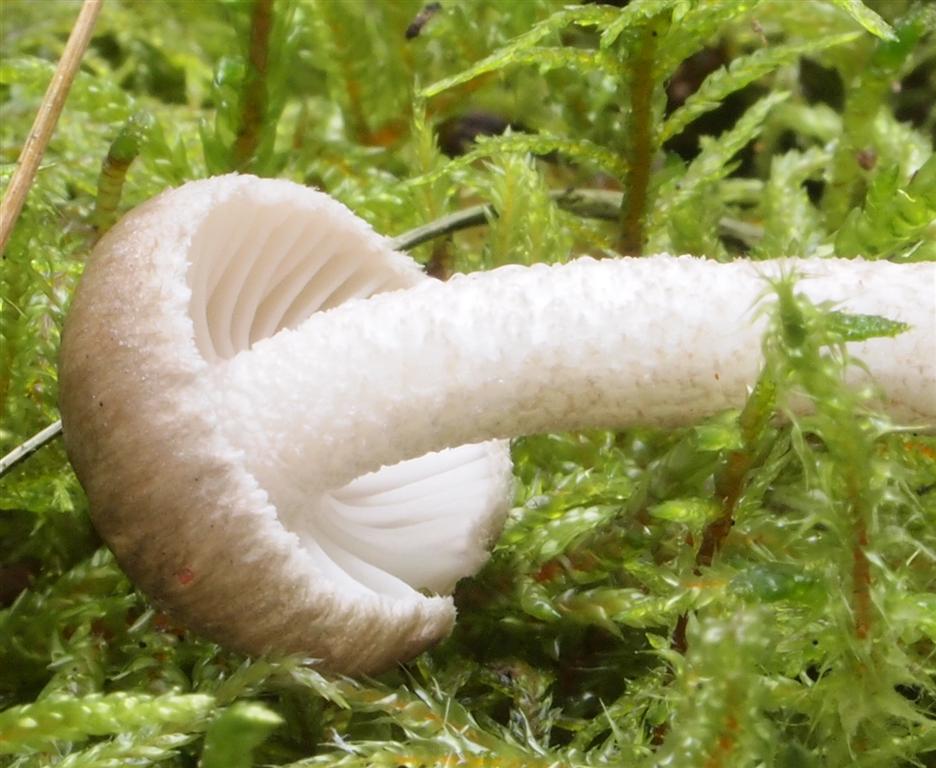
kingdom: Fungi
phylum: Basidiomycota
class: Agaricomycetes
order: Agaricales
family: Hygrophoraceae
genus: Hygrophorus
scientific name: Hygrophorus pustulatus
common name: mørkprikket sneglehat
